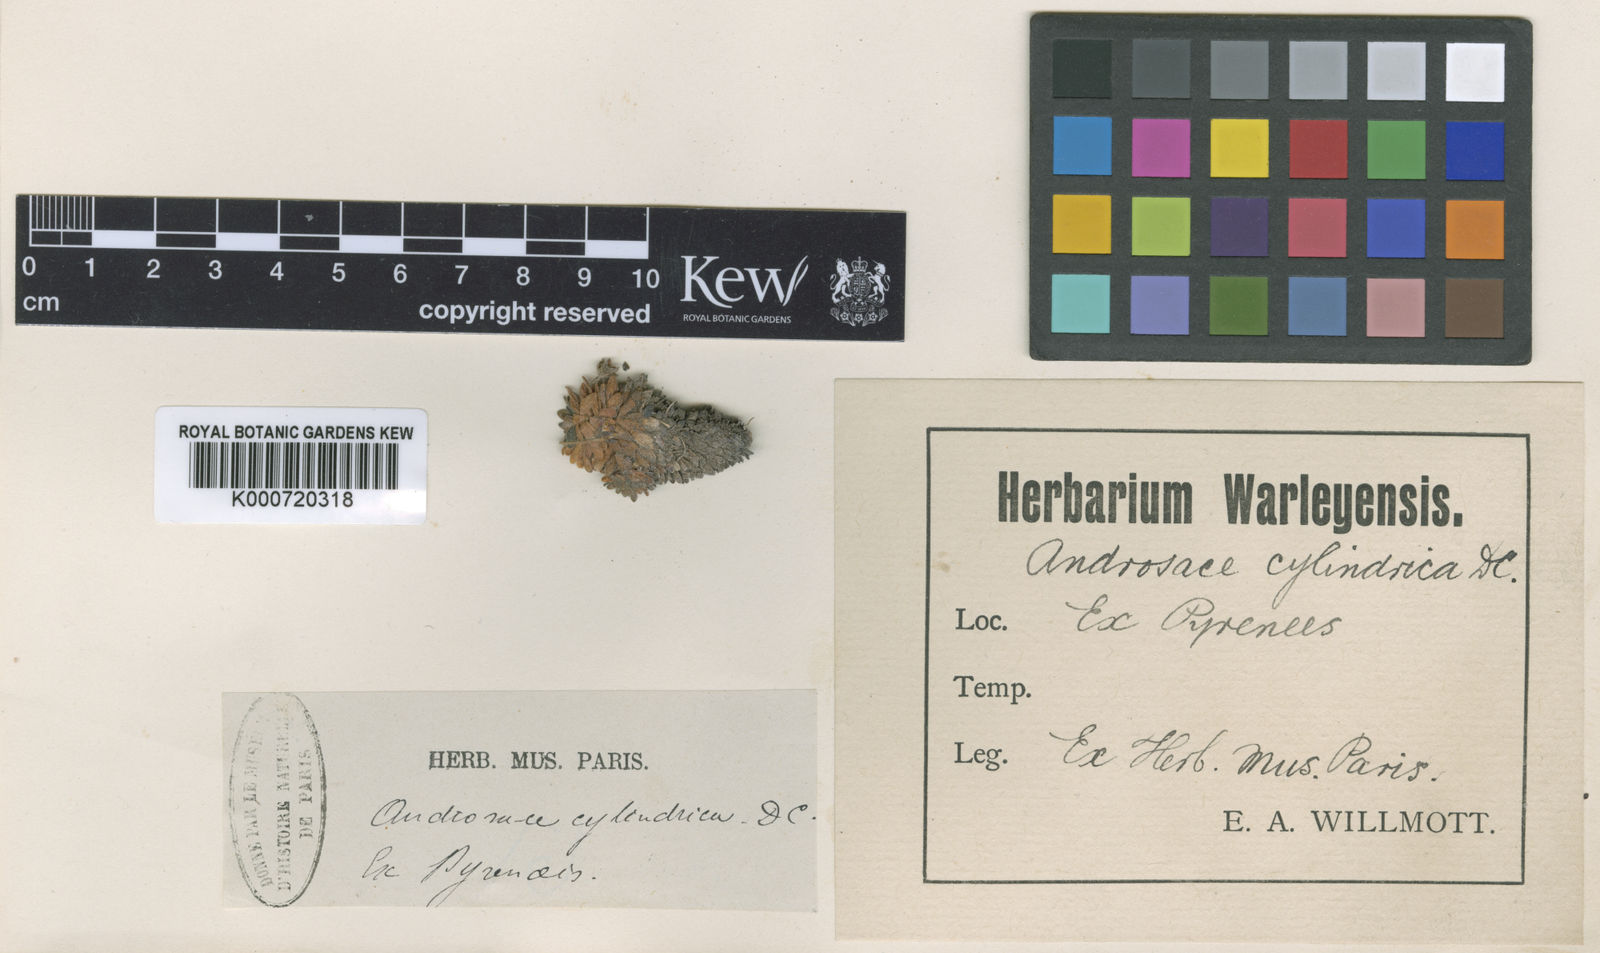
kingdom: Plantae
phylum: Tracheophyta
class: Magnoliopsida
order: Ericales
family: Primulaceae
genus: Androsace
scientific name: Androsace cylindrica
